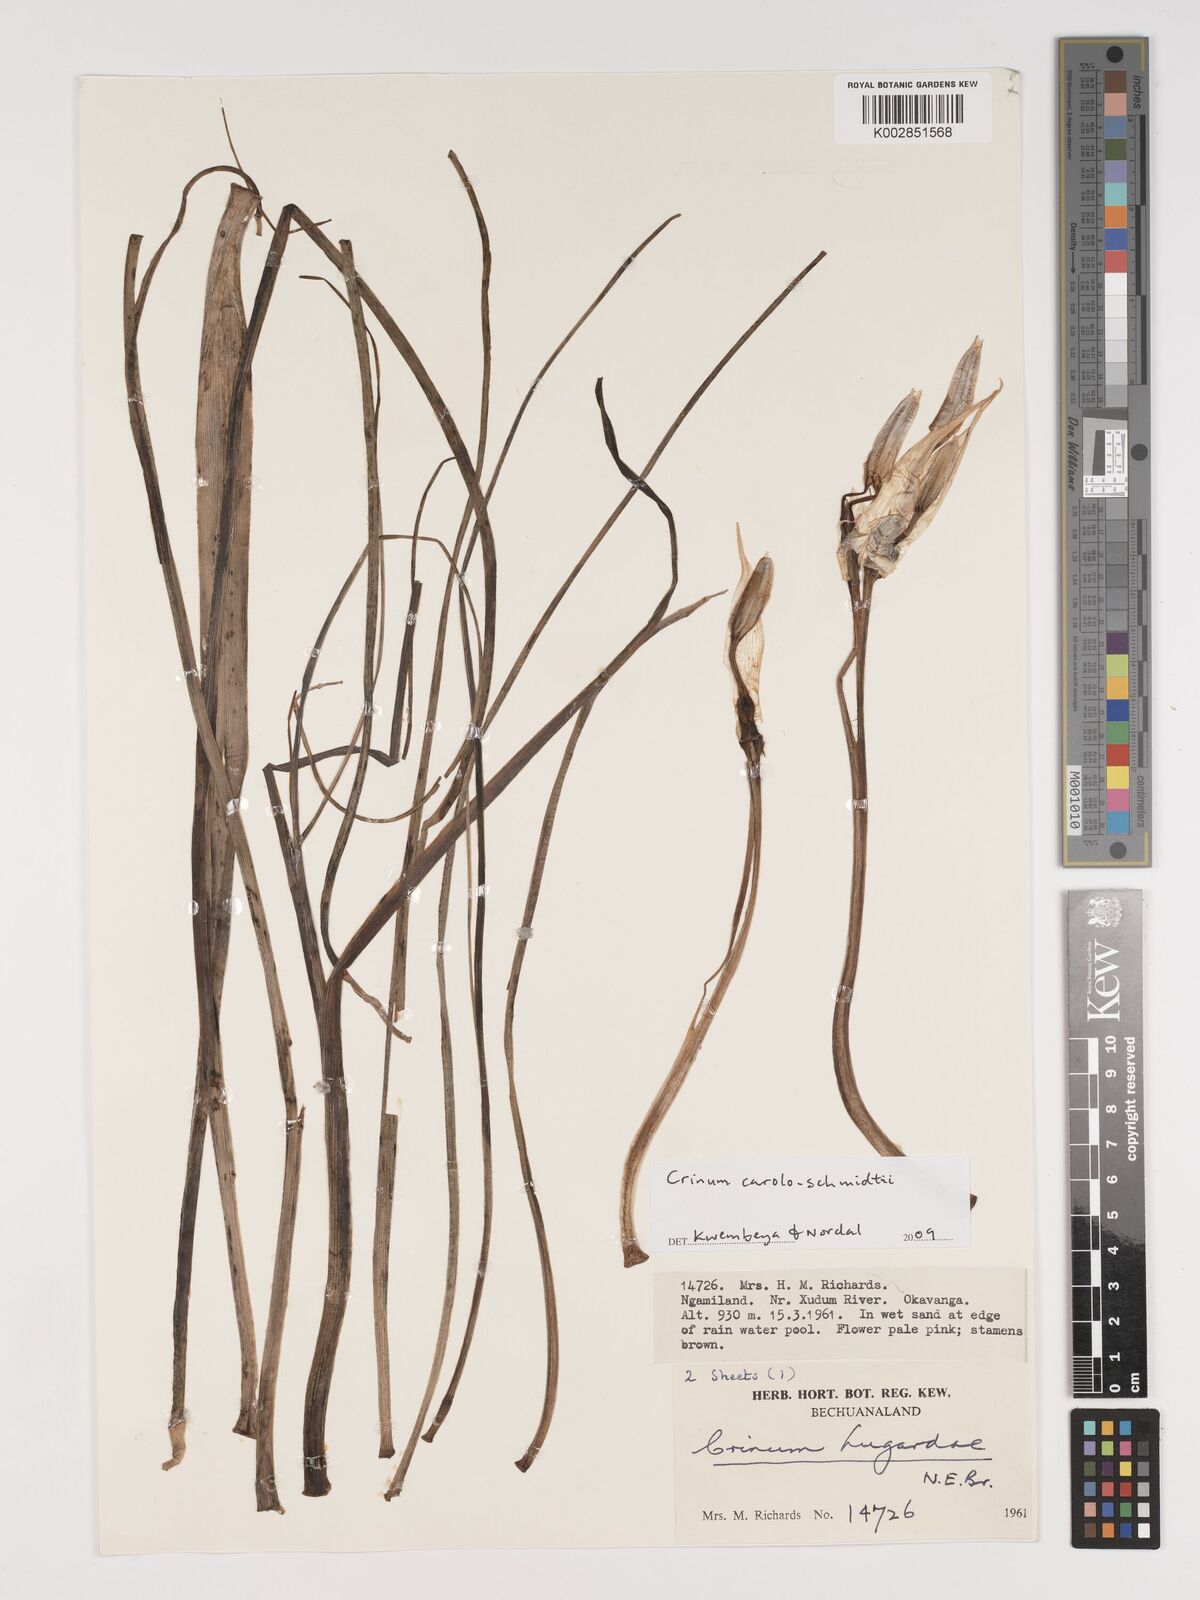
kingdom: Plantae
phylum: Tracheophyta
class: Liliopsida
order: Asparagales
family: Amaryllidaceae
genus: Crinum
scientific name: Crinum carolo-schmidtii
